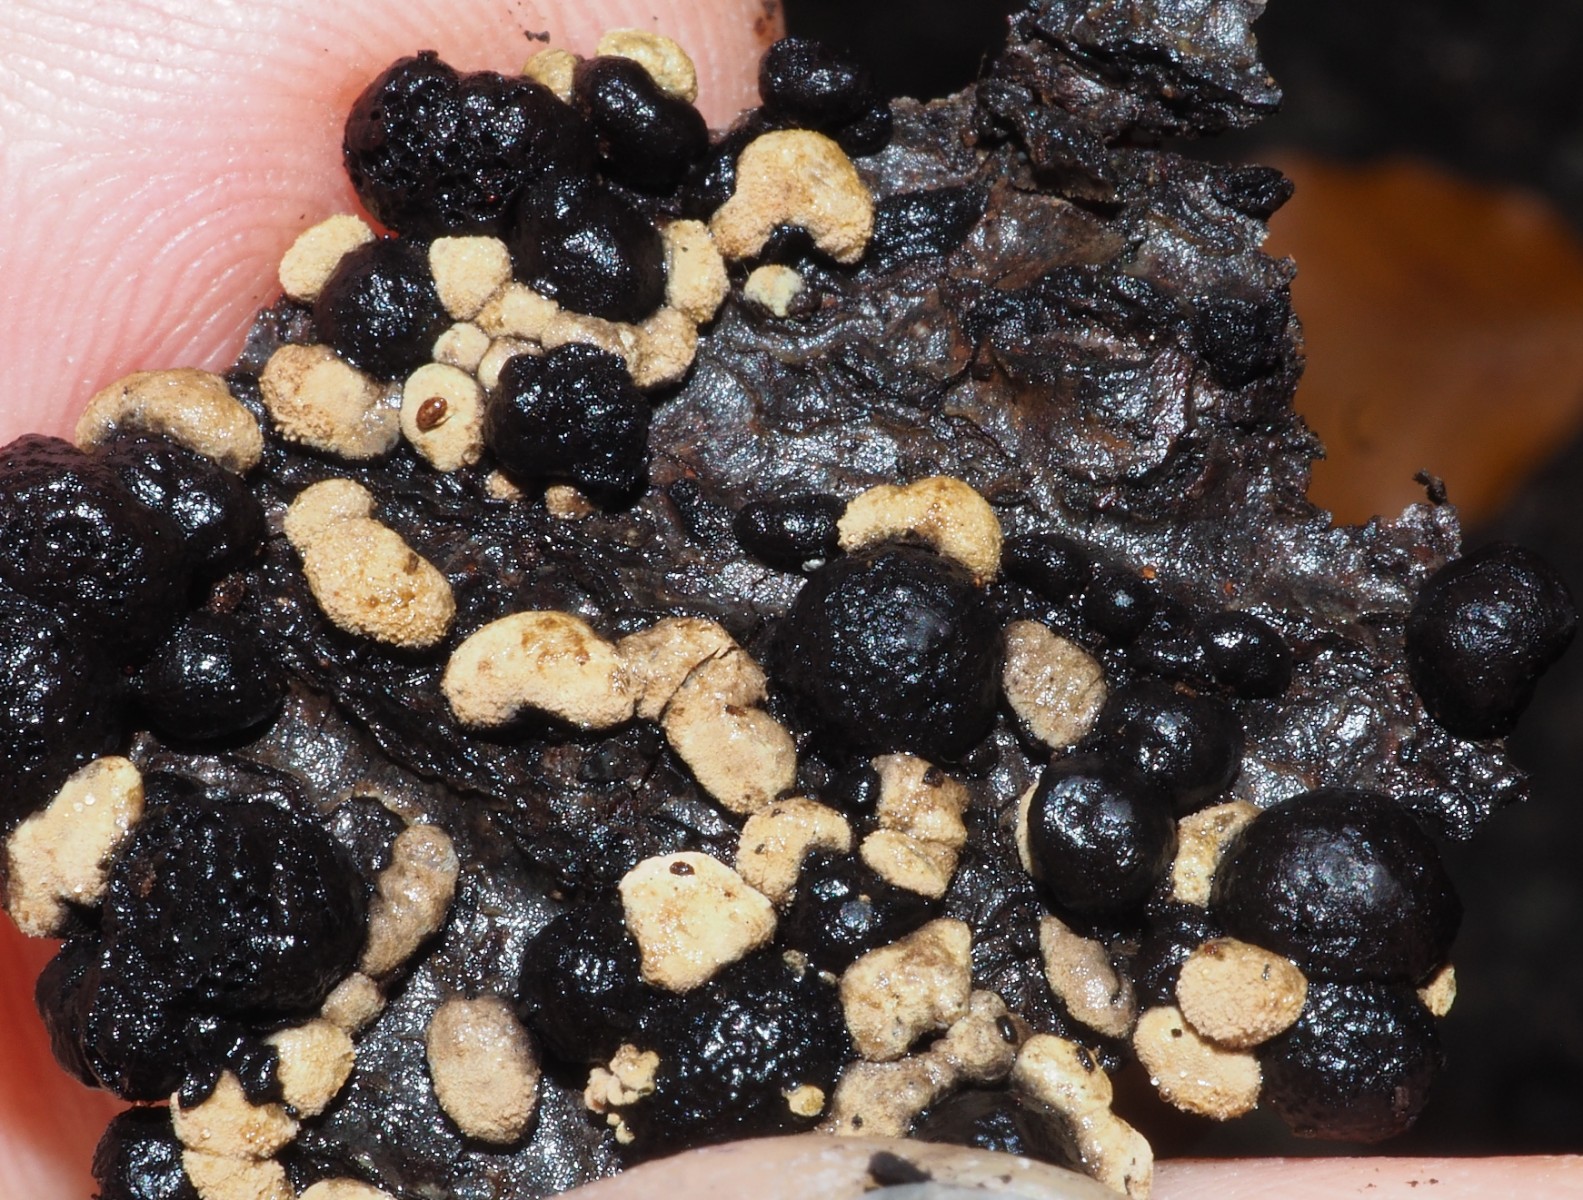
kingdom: Fungi
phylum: Ascomycota
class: Sordariomycetes
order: Xylariales
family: Hypoxylaceae
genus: Hypoxylon
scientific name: Hypoxylon
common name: kulbær
